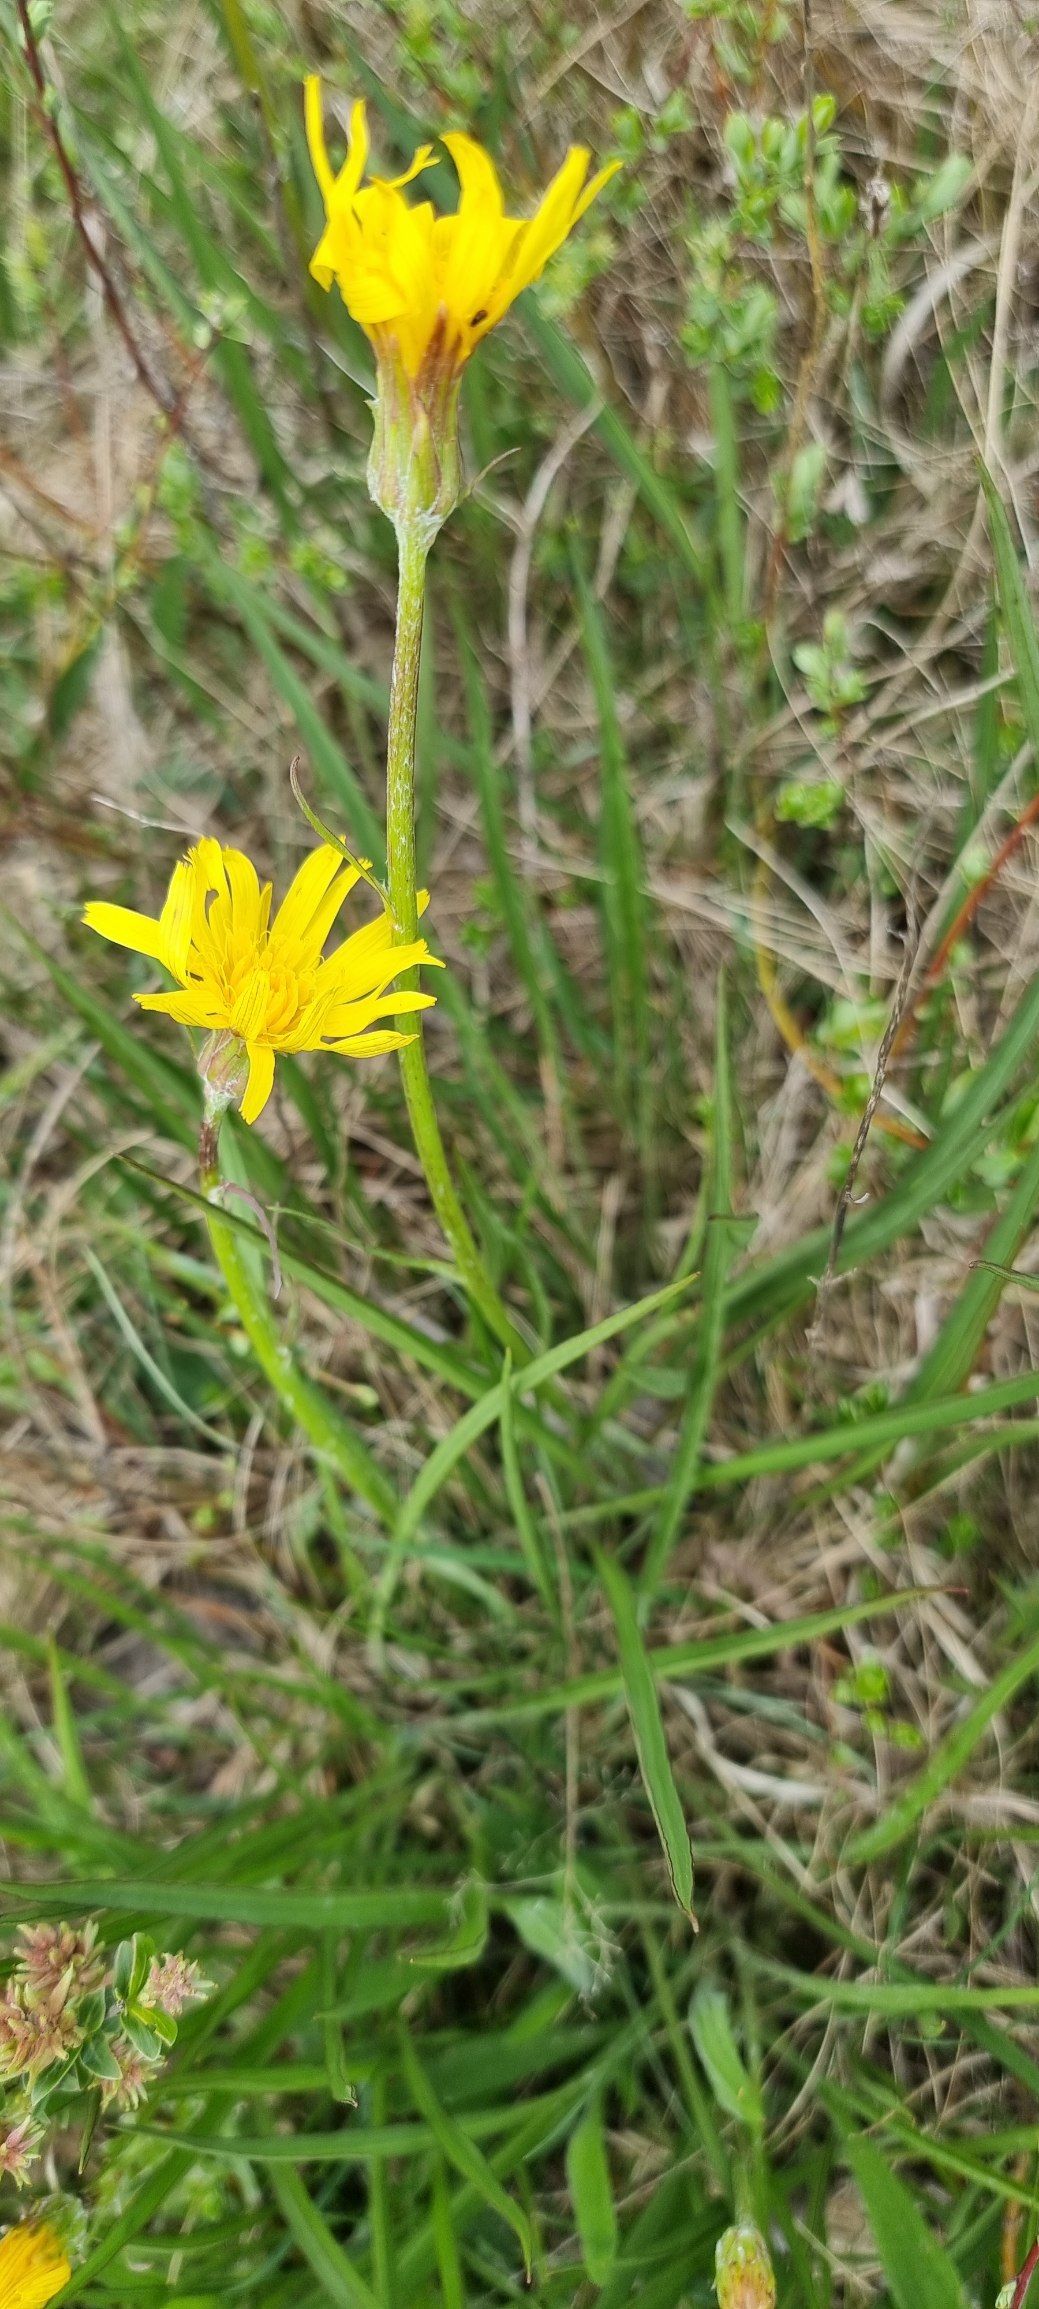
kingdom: Plantae
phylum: Tracheophyta
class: Magnoliopsida
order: Asterales
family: Asteraceae
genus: Scorzonera
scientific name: Scorzonera humilis
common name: Lav skorsoner
